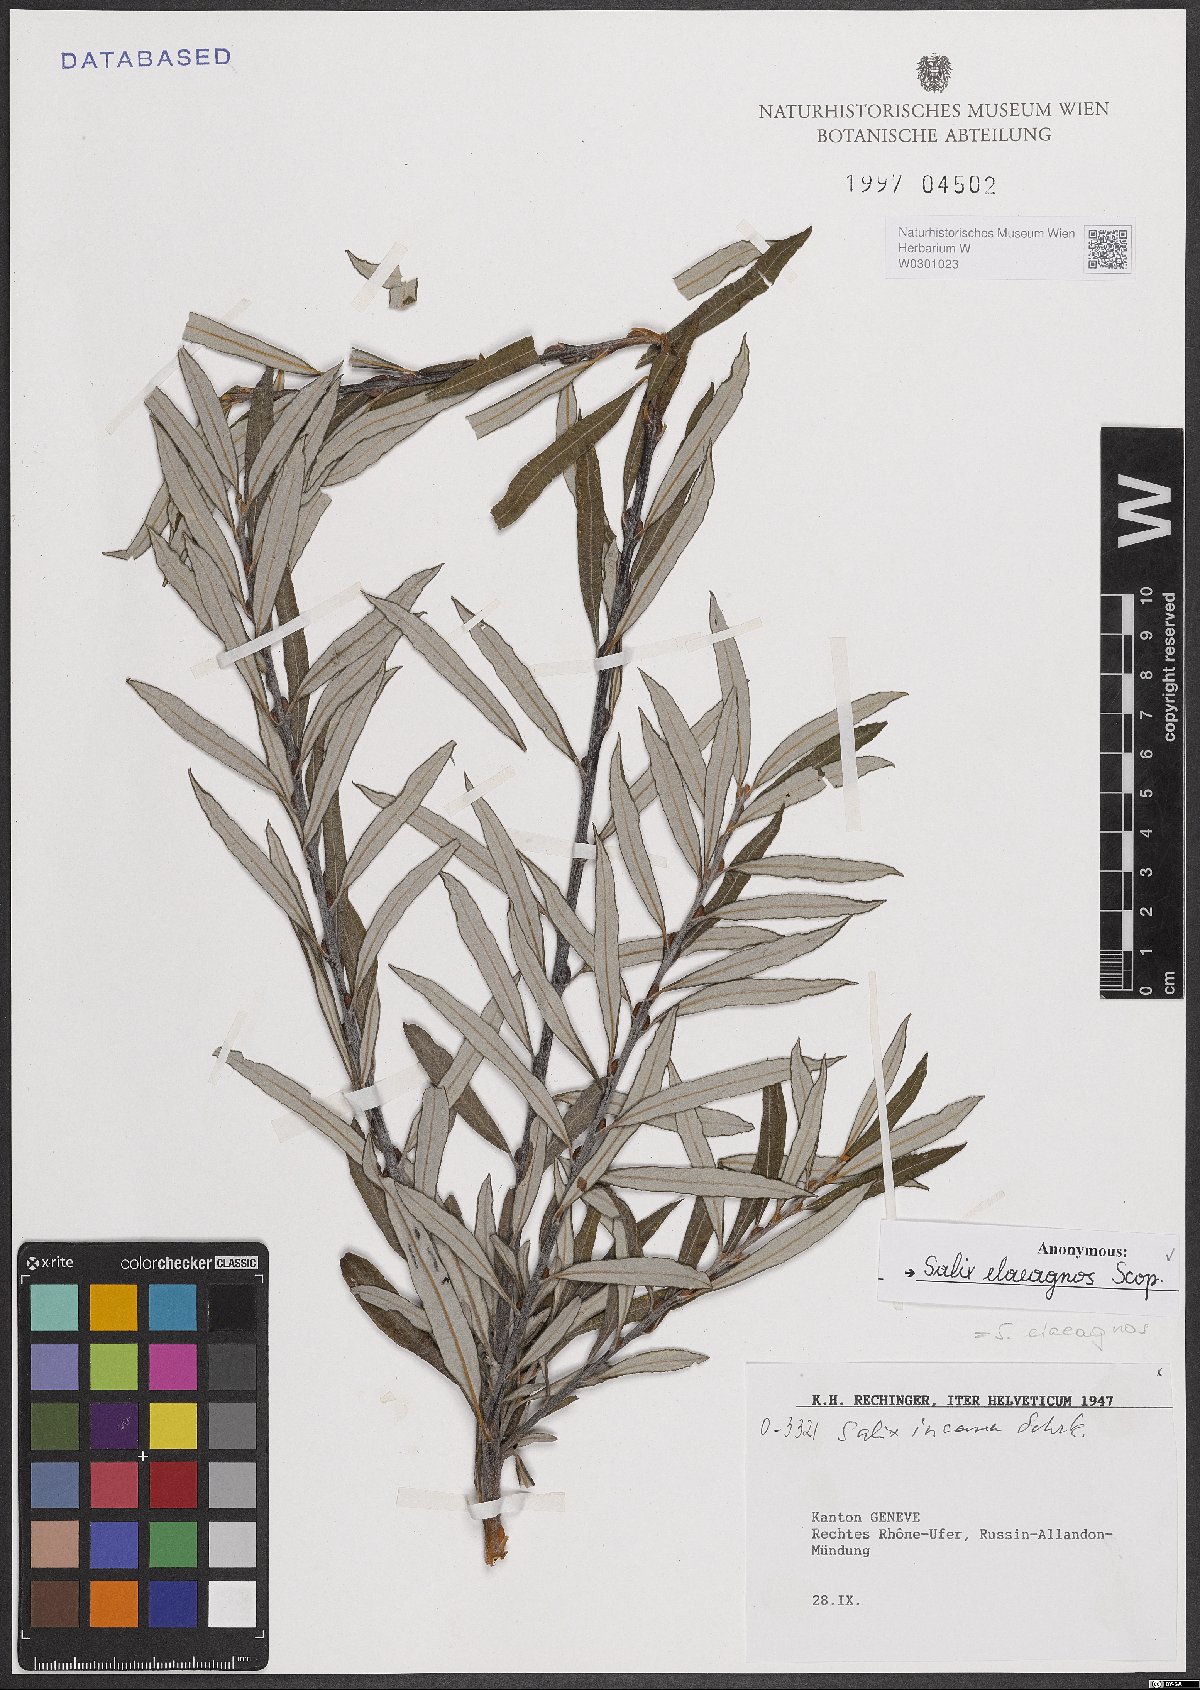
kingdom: Plantae
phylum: Tracheophyta
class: Magnoliopsida
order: Malpighiales
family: Salicaceae
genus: Salix
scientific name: Salix eleagnos
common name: Elaeagnus willow
